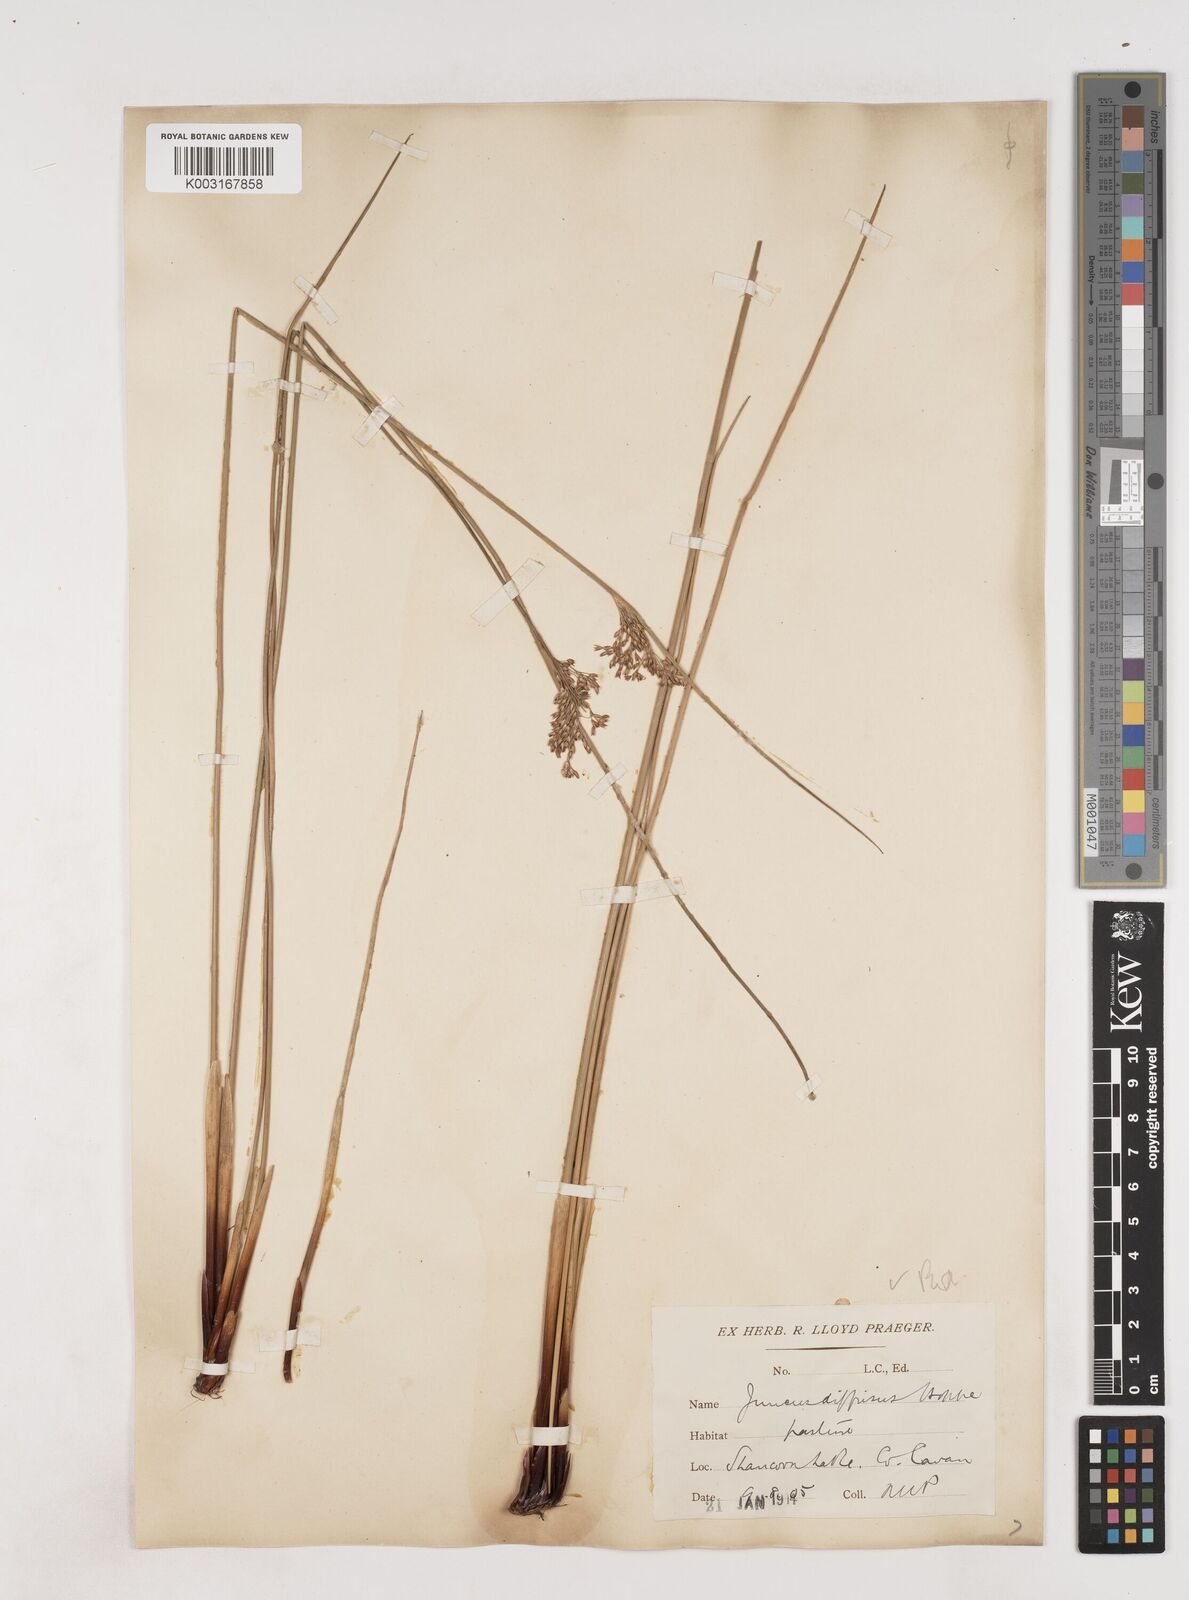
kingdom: Plantae
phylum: Tracheophyta
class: Liliopsida
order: Poales
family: Juncaceae
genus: Juncus
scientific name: Juncus effusus
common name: Soft rush
